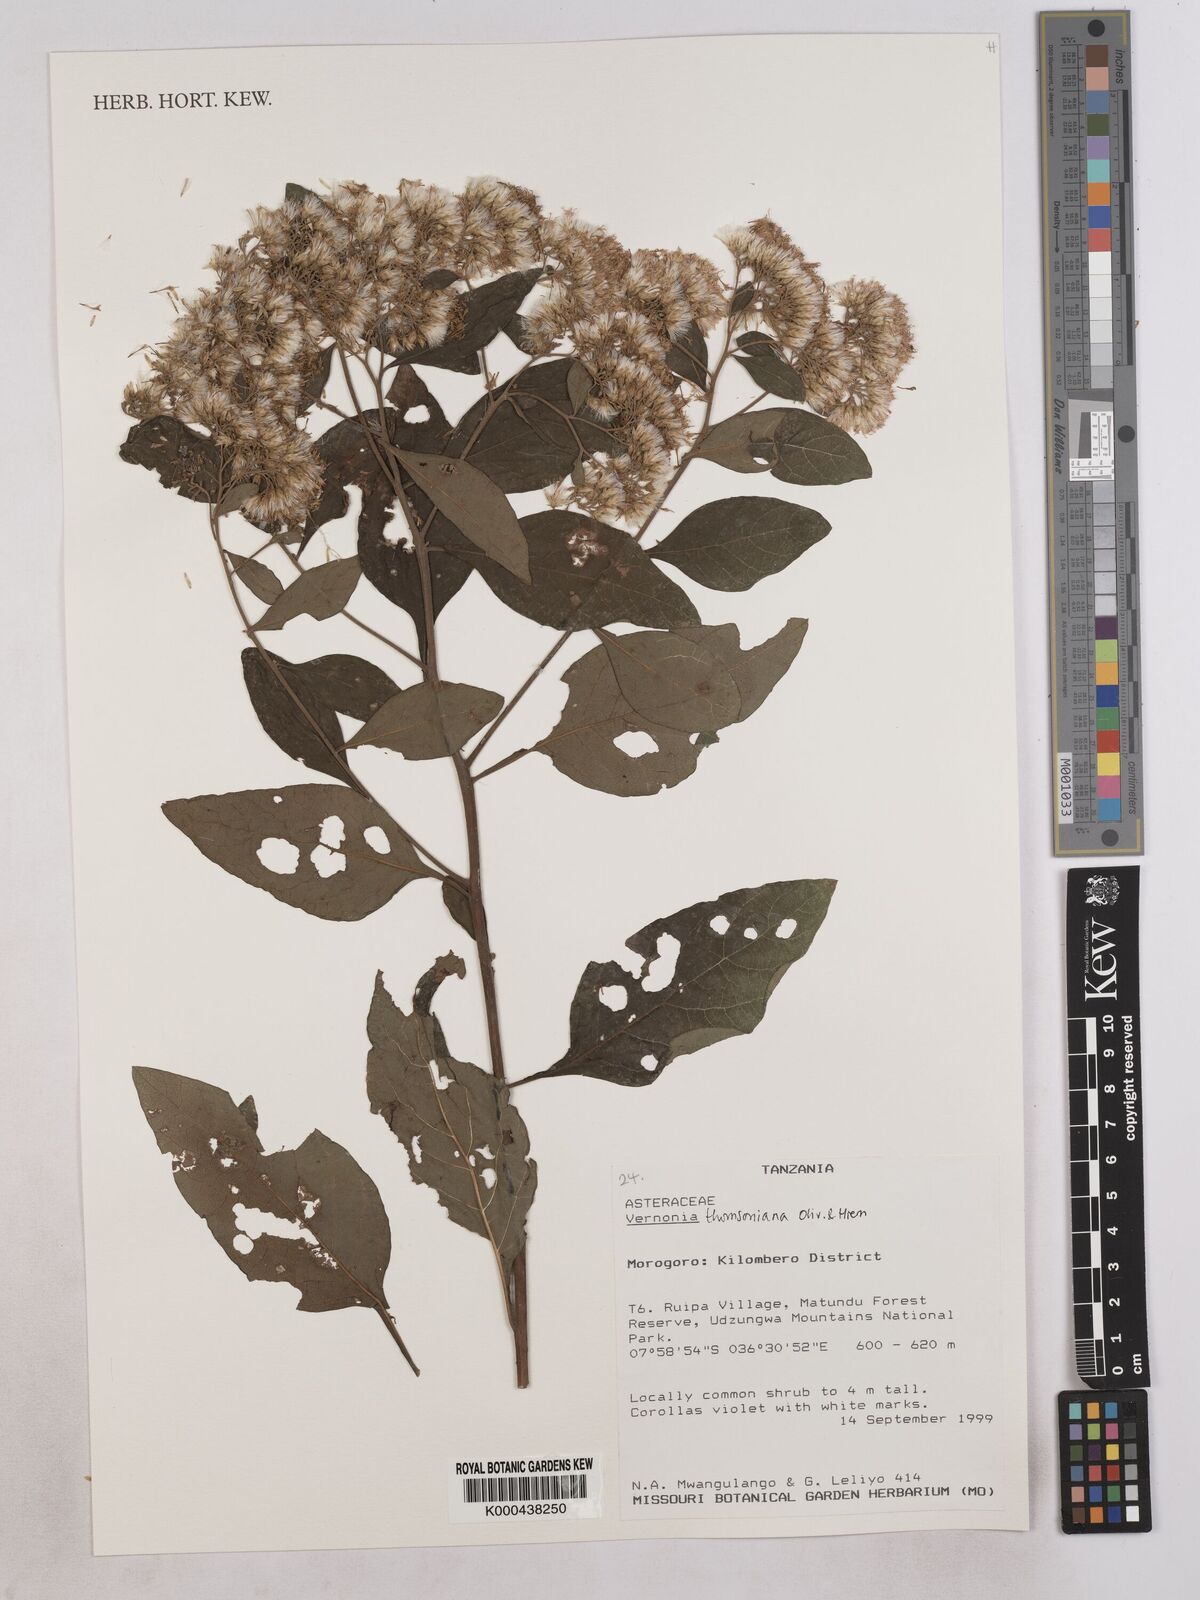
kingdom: Plantae
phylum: Tracheophyta
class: Magnoliopsida
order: Asterales
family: Asteraceae
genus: Gymnanthemum
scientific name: Gymnanthemum thomsonianum
